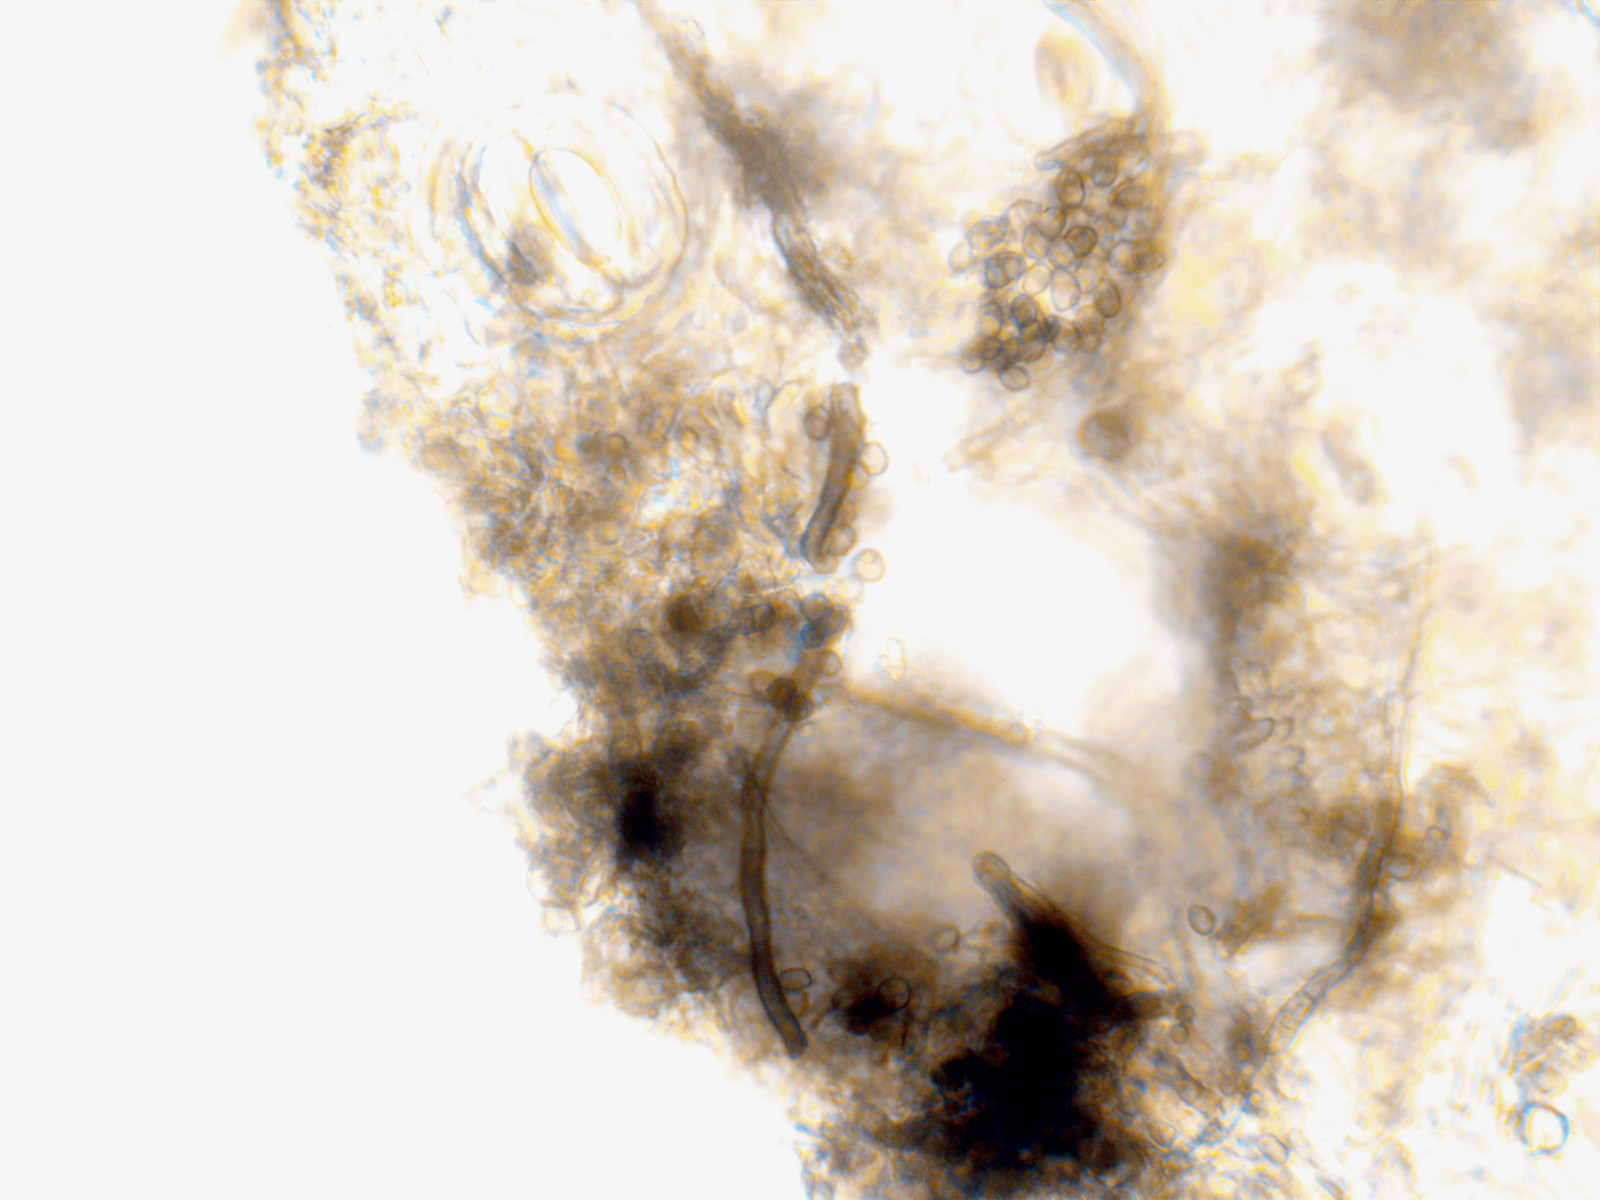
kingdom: Fungi
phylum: Ascomycota
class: Leotiomycetes
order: Helotiales
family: Cenangiaceae
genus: Trochila
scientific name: Trochila craterium
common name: vedbend-lågskive
